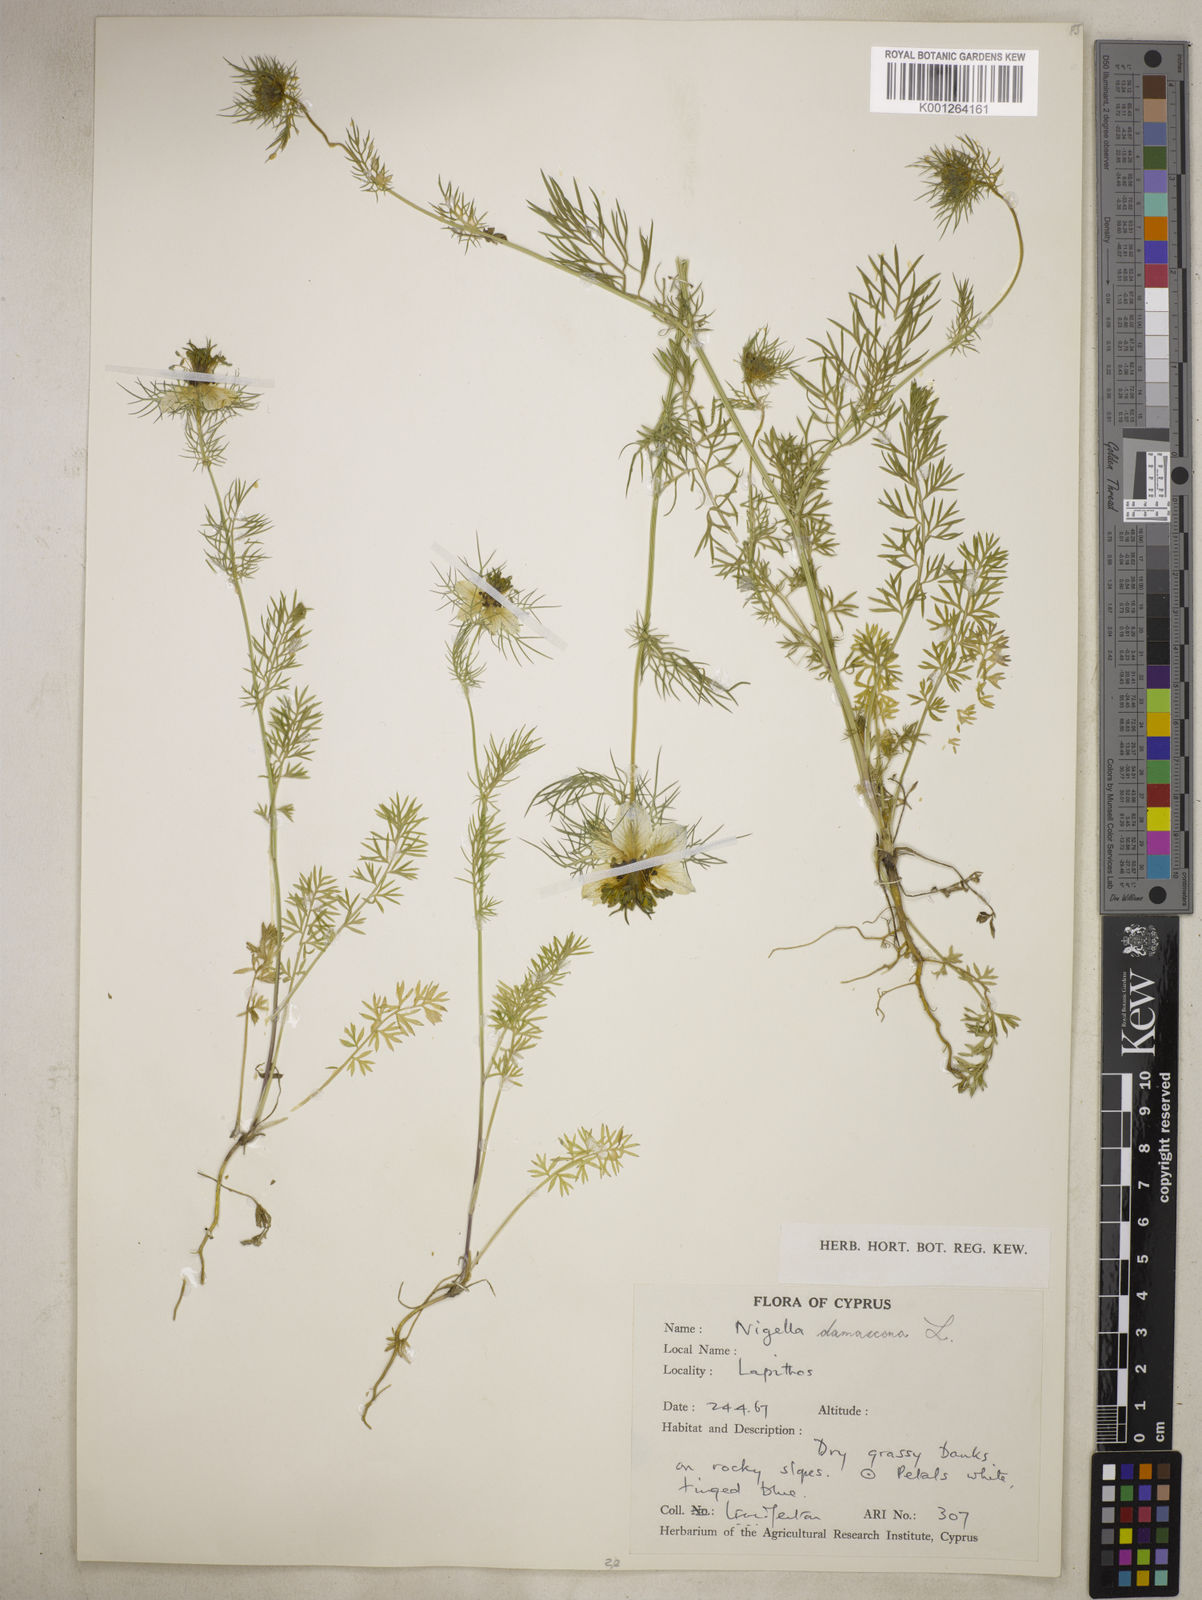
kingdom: Plantae
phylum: Tracheophyta
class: Magnoliopsida
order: Ranunculales
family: Ranunculaceae
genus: Nigella
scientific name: Nigella damascena
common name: Love-in-a-mist
